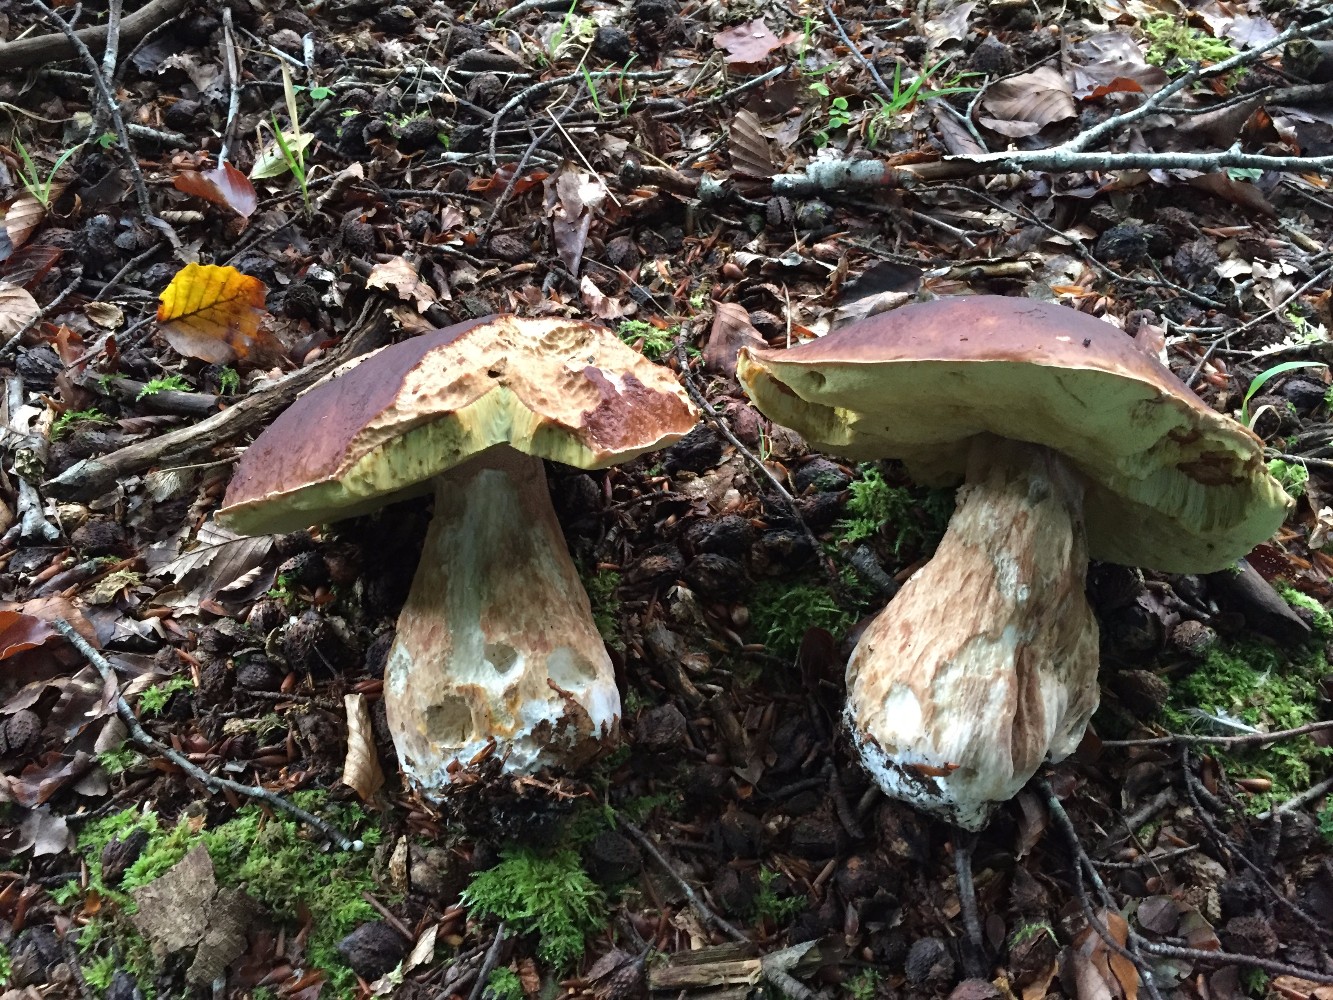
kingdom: Fungi
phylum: Basidiomycota
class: Agaricomycetes
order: Boletales
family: Boletaceae
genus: Boletus
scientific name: Boletus edulis
